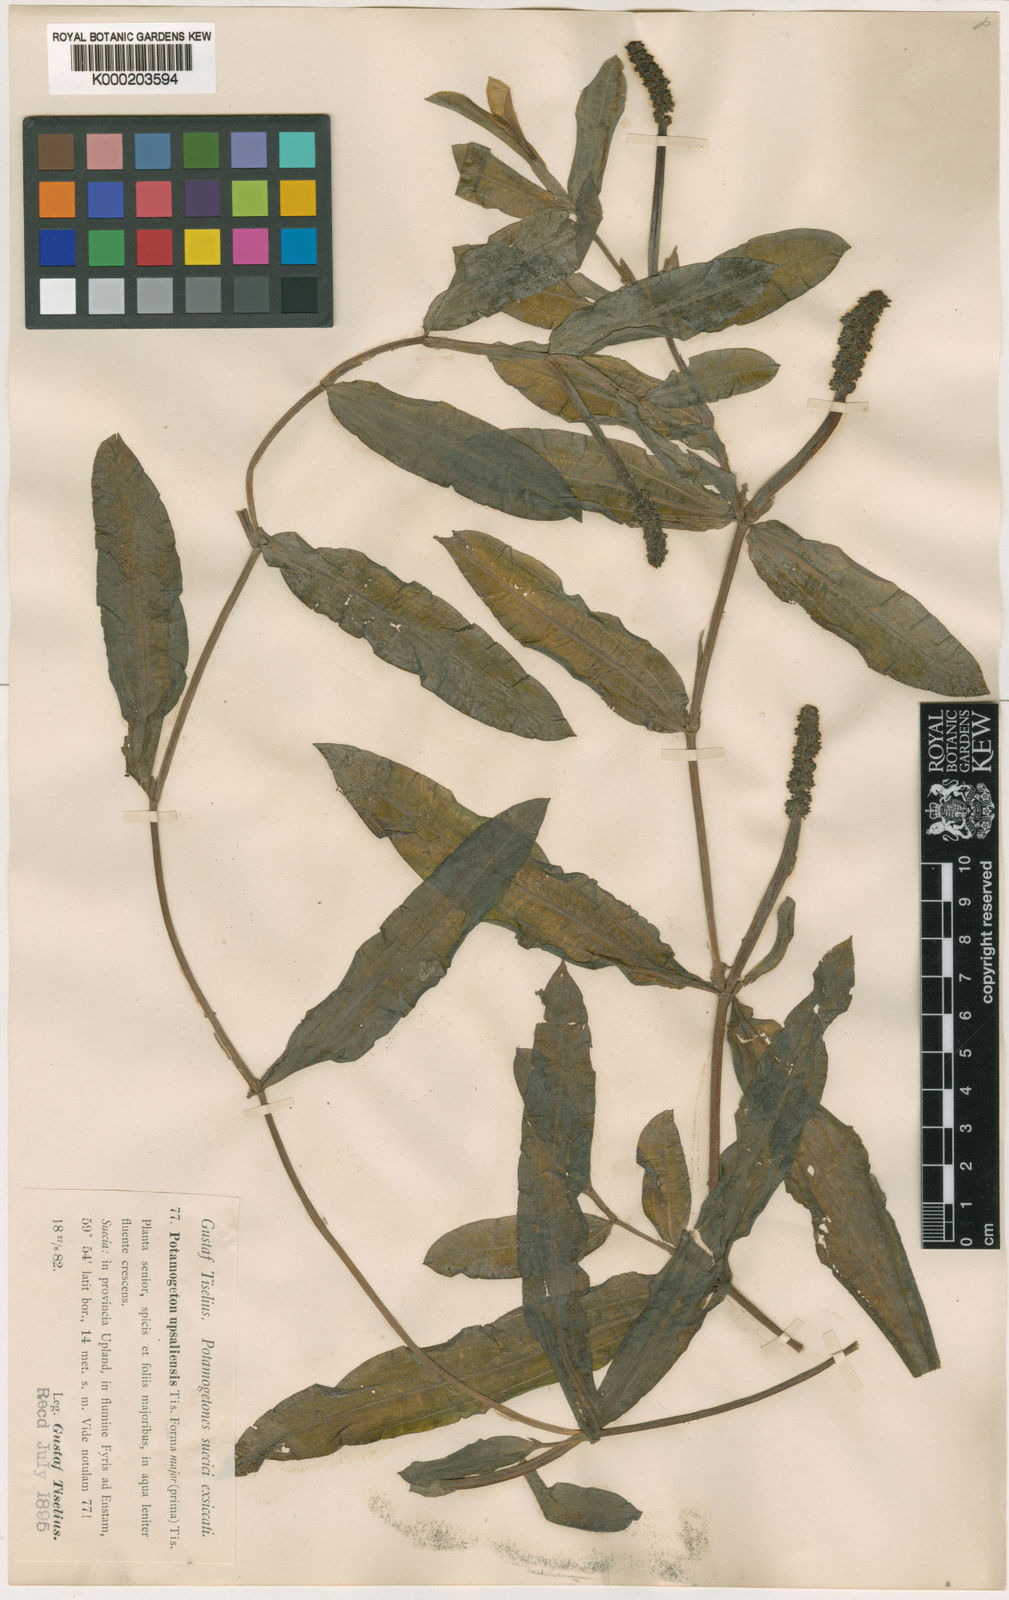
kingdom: Plantae
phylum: Tracheophyta
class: Liliopsida
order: Alismatales
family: Potamogetonaceae
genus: Potamogeton
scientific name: Potamogeton salicifolius
